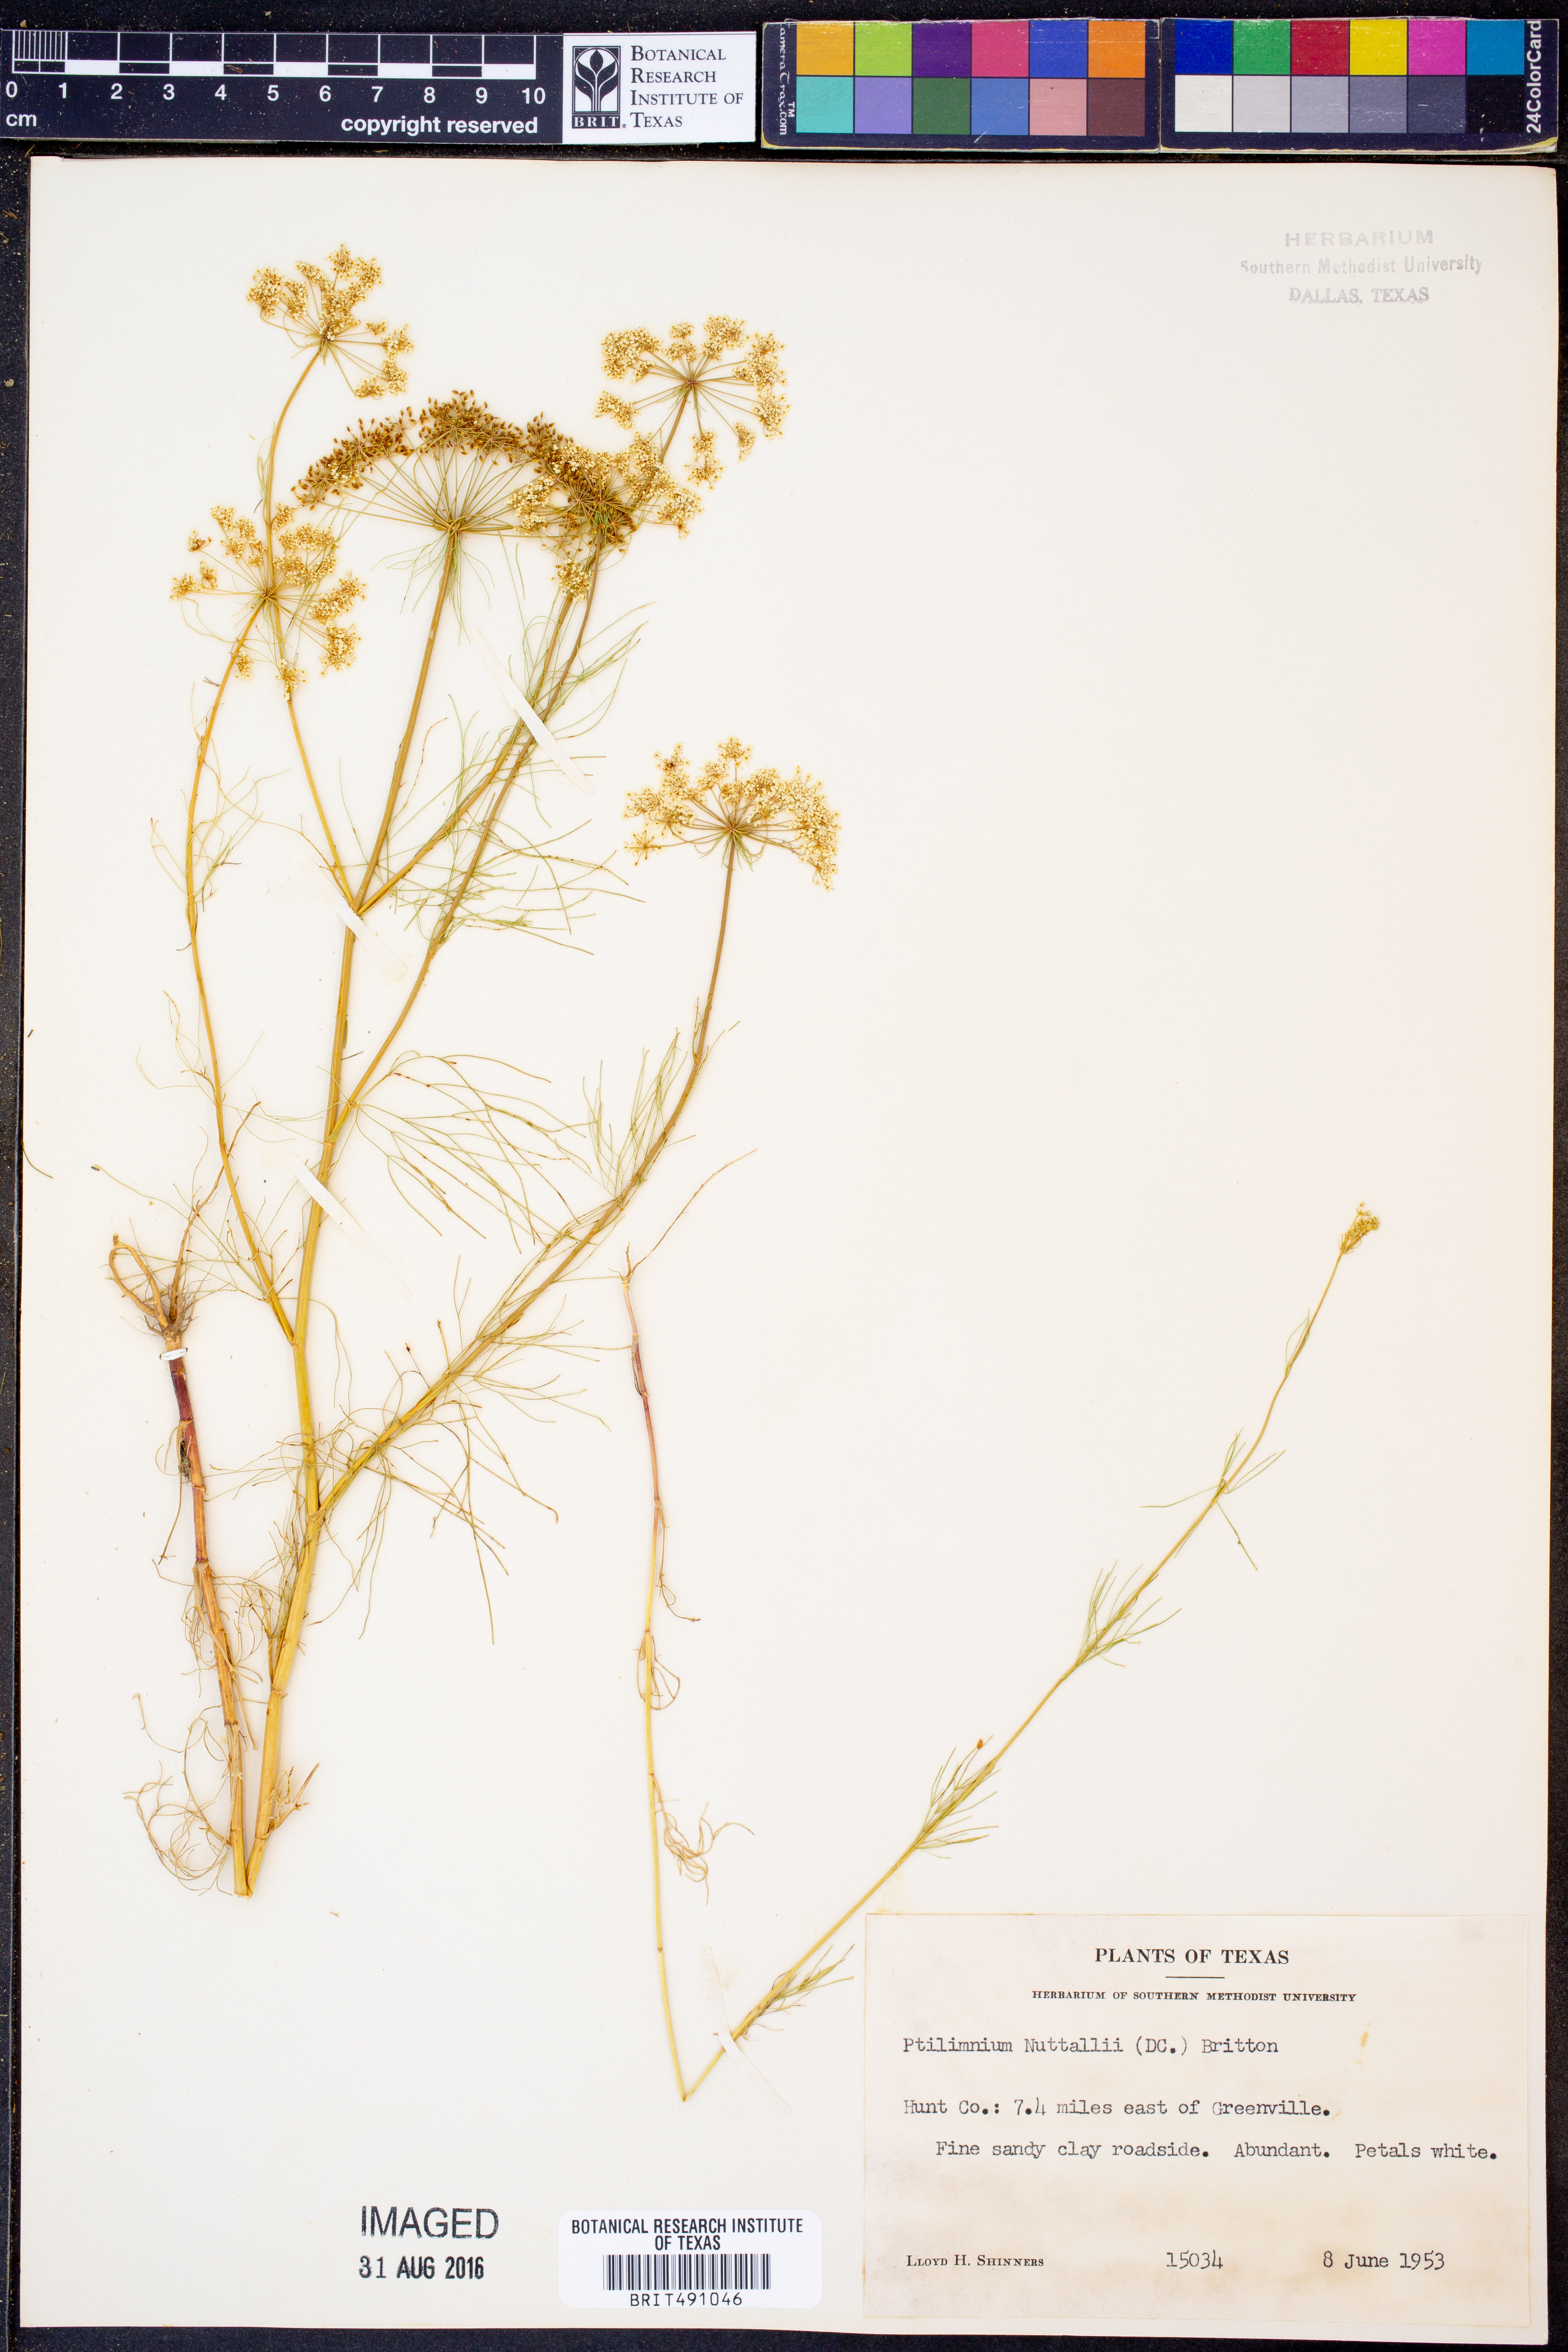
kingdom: Plantae
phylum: Tracheophyta
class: Magnoliopsida
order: Apiales
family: Apiaceae
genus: Ptilimnium
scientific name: Ptilimnium nuttallii
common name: Ozark bishop's-weed
